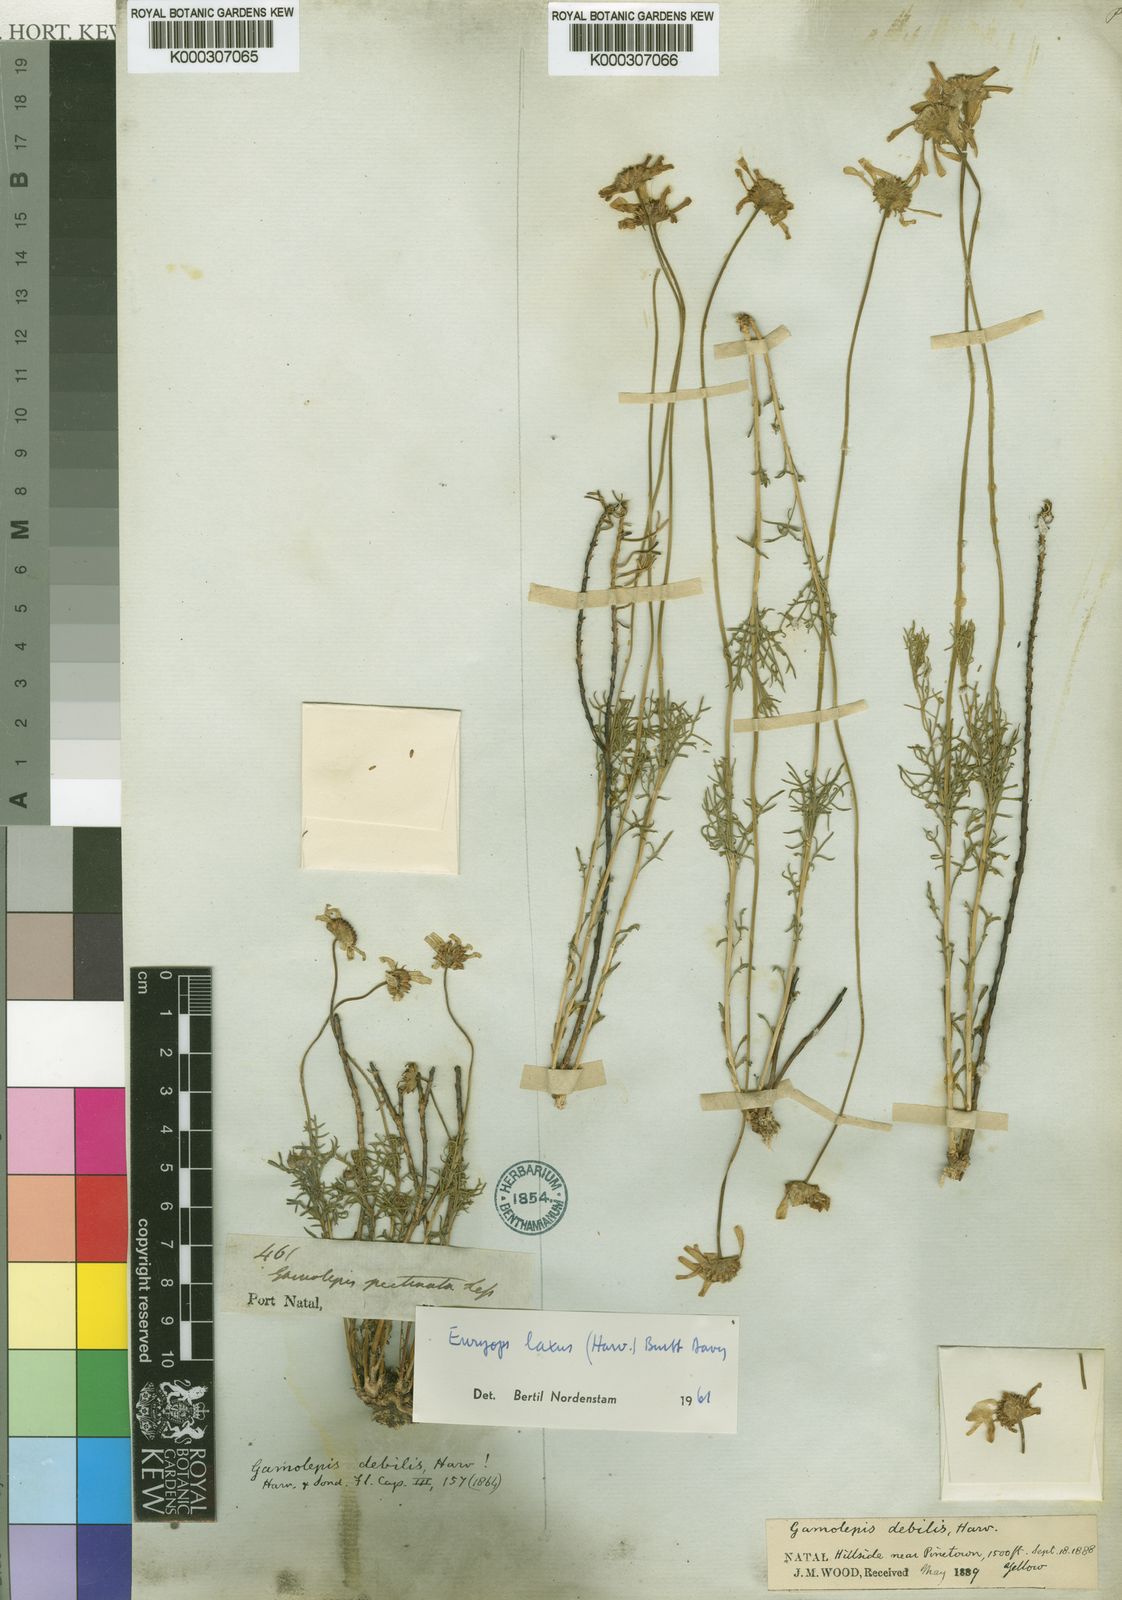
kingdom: Plantae
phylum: Tracheophyta
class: Magnoliopsida
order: Asterales
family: Asteraceae
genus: Euryops
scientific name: Euryops laxus
